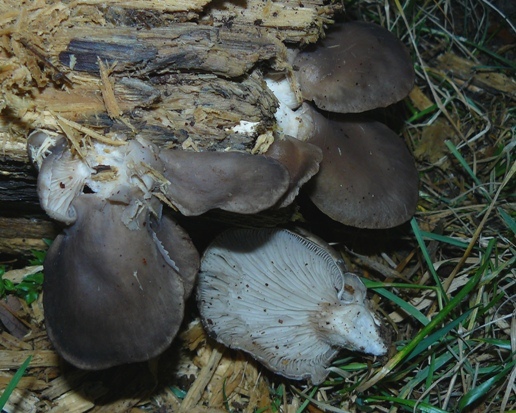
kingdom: Fungi
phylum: Basidiomycota
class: Agaricomycetes
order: Agaricales
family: Pleurotaceae
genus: Pleurotus
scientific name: Pleurotus ostreatus
